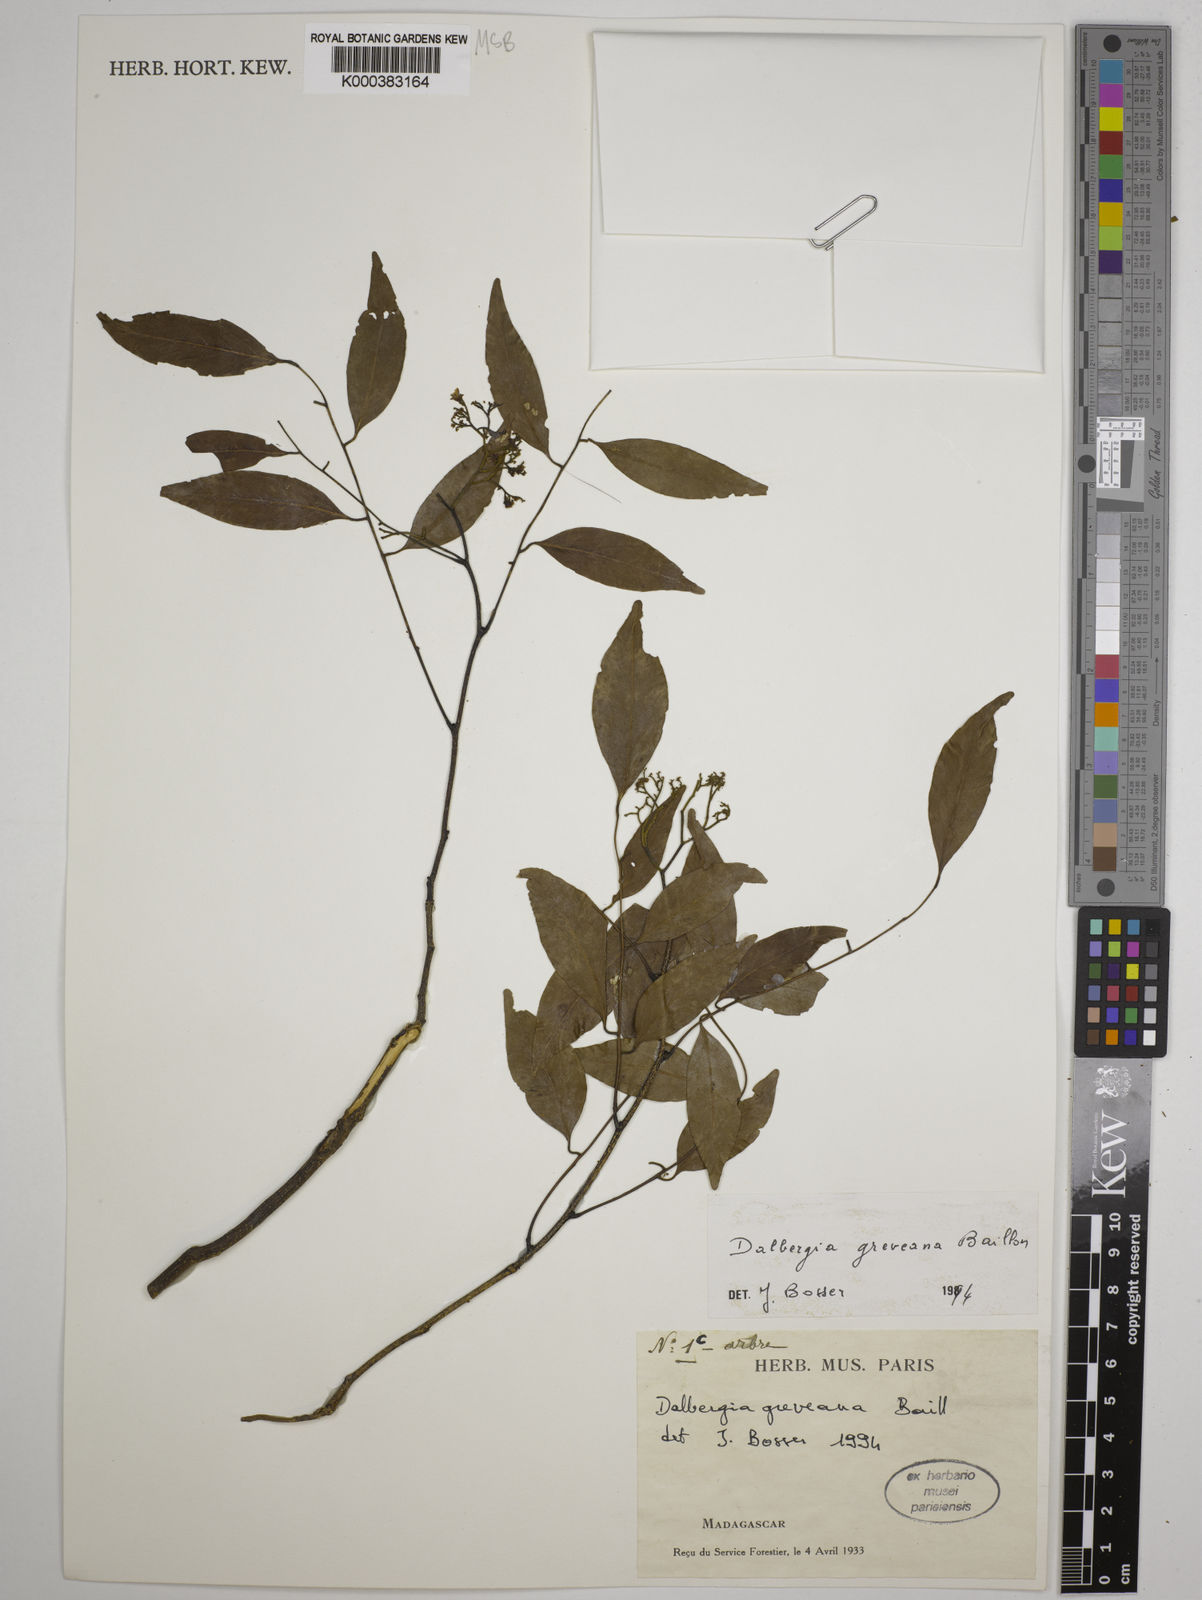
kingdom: Plantae
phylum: Tracheophyta
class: Magnoliopsida
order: Fabales
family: Fabaceae
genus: Dalbergia
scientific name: Dalbergia greveana
